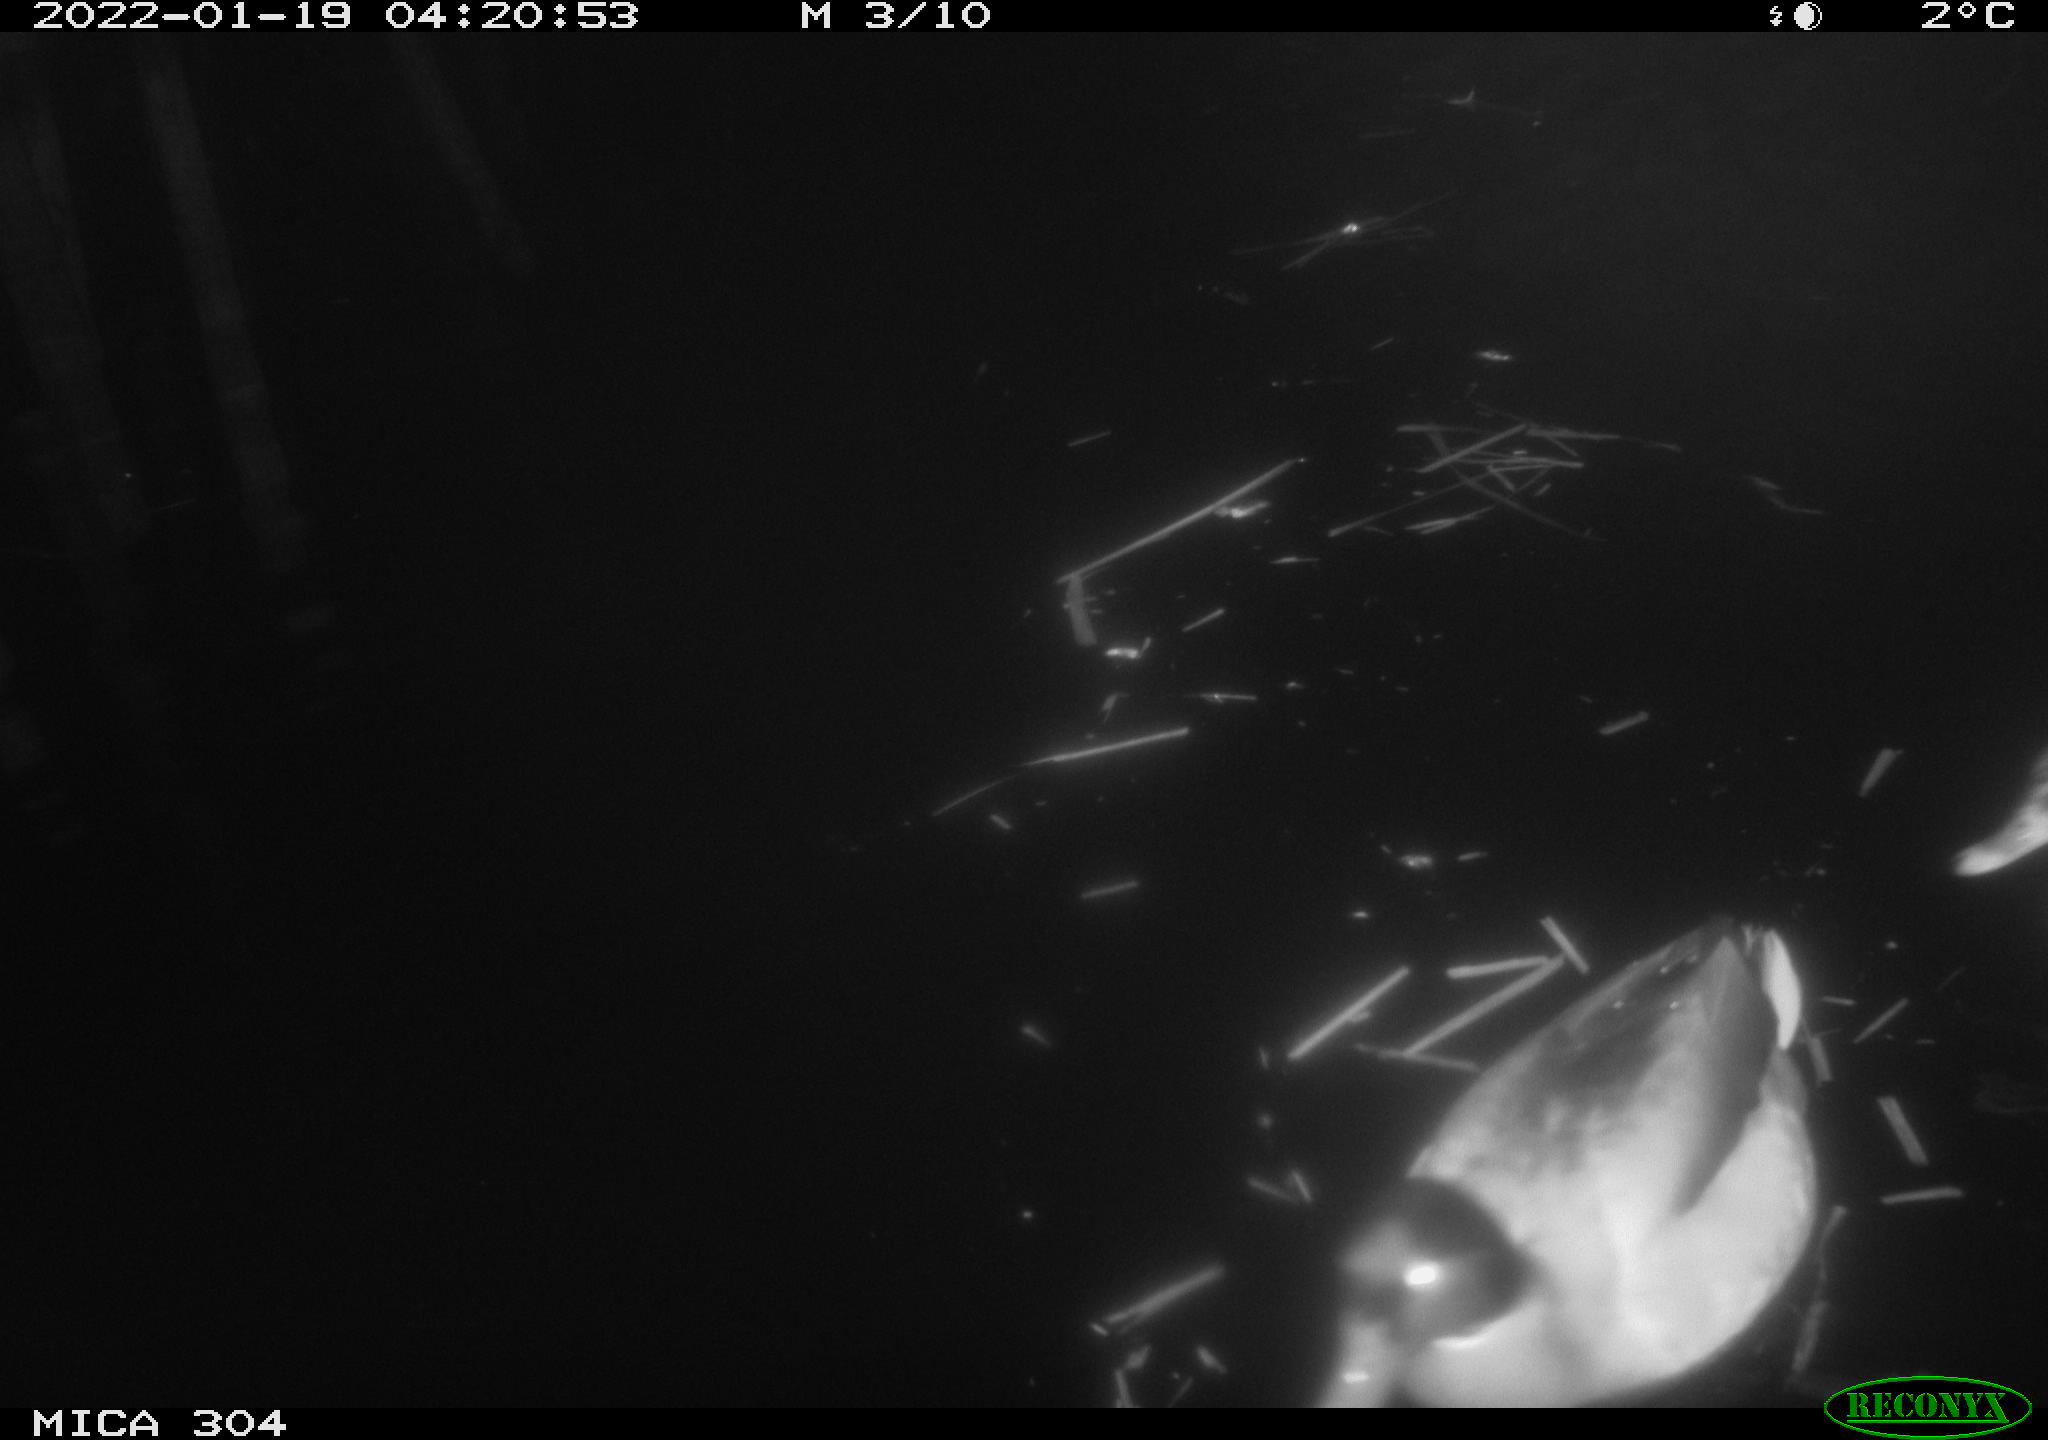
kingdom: Animalia
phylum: Chordata
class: Aves
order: Anseriformes
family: Anatidae
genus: Anas
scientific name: Anas
